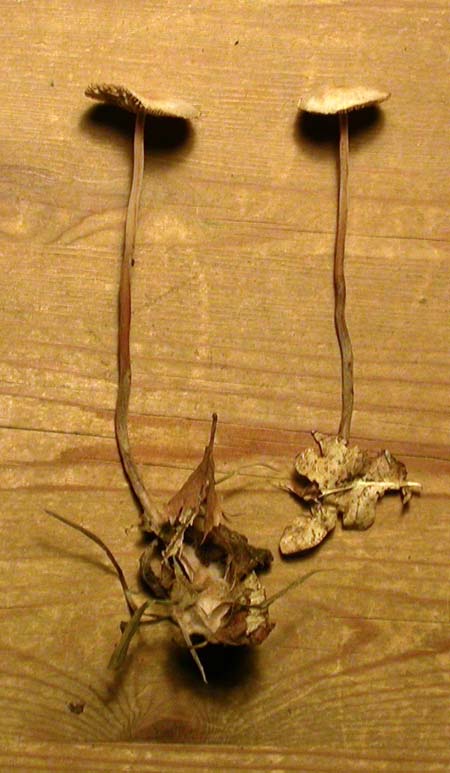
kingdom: Fungi
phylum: Basidiomycota
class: Agaricomycetes
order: Agaricales
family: Omphalotaceae
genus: Mycetinis
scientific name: Mycetinis querceus
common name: ege-løghat
